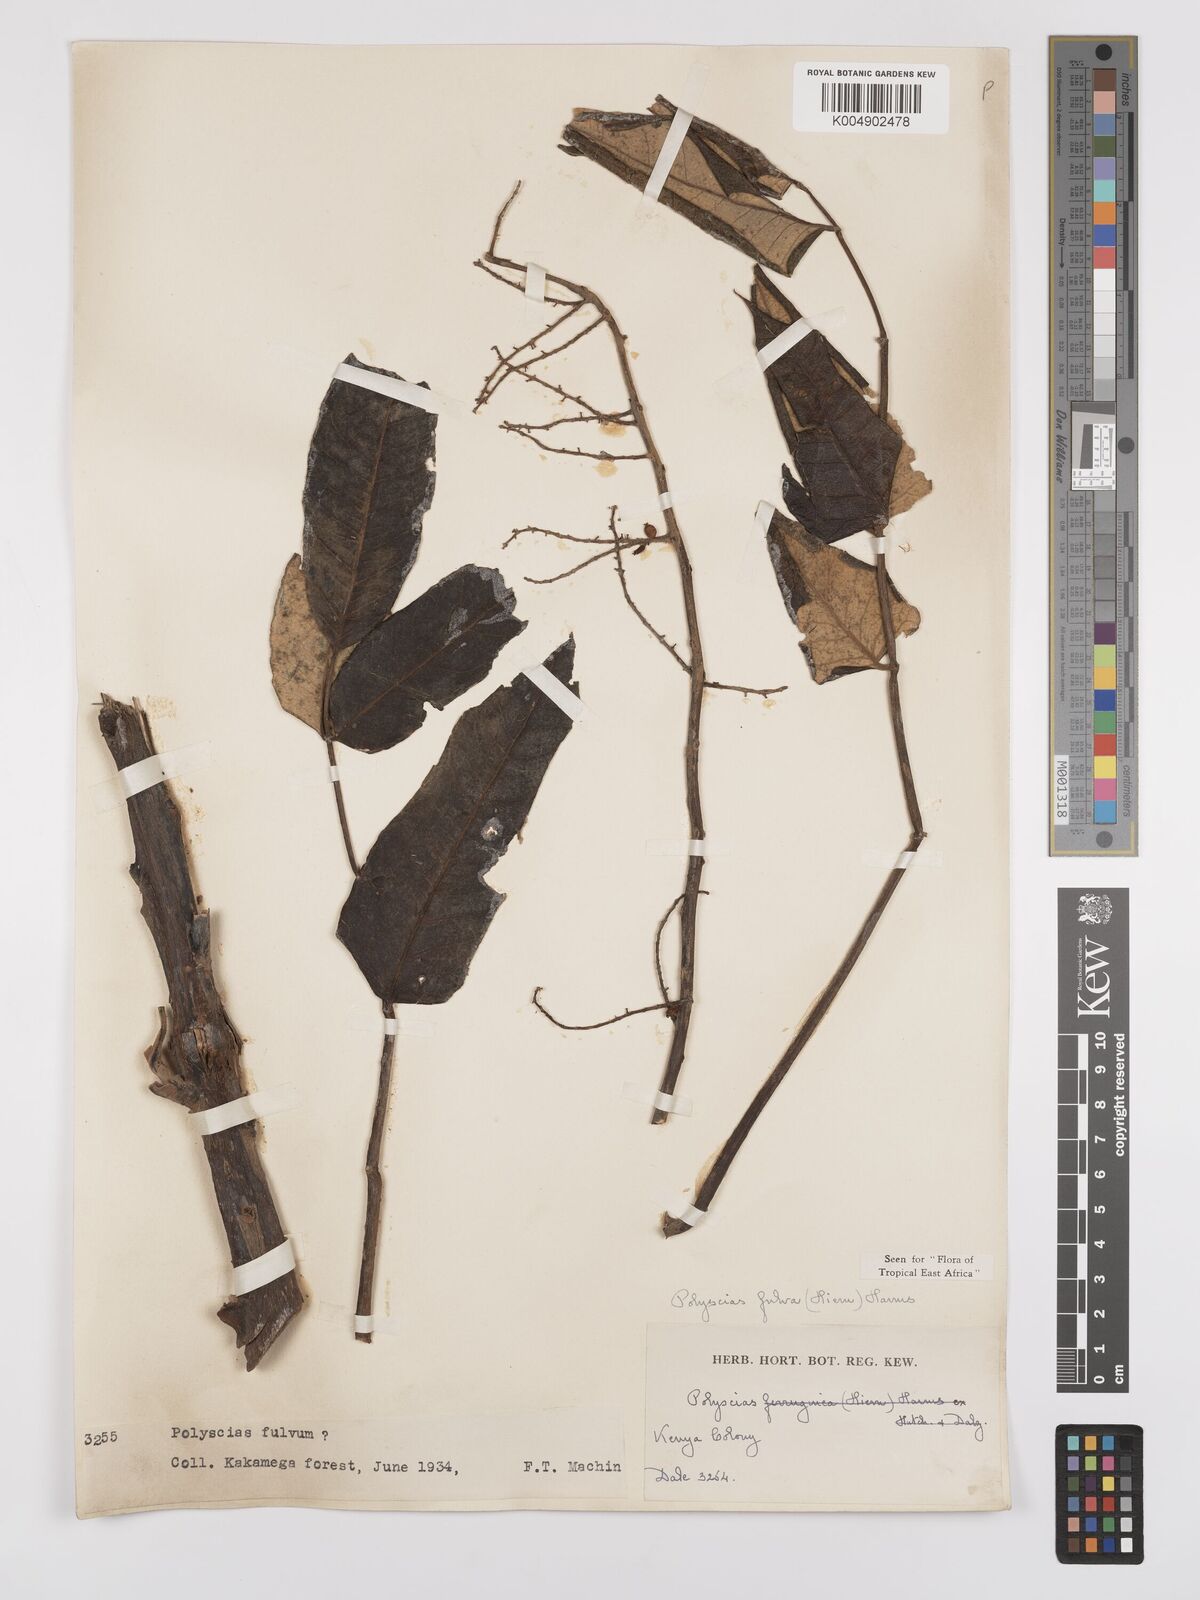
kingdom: Plantae
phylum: Tracheophyta
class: Magnoliopsida
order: Apiales
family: Araliaceae
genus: Polyscias
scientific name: Polyscias fulva
